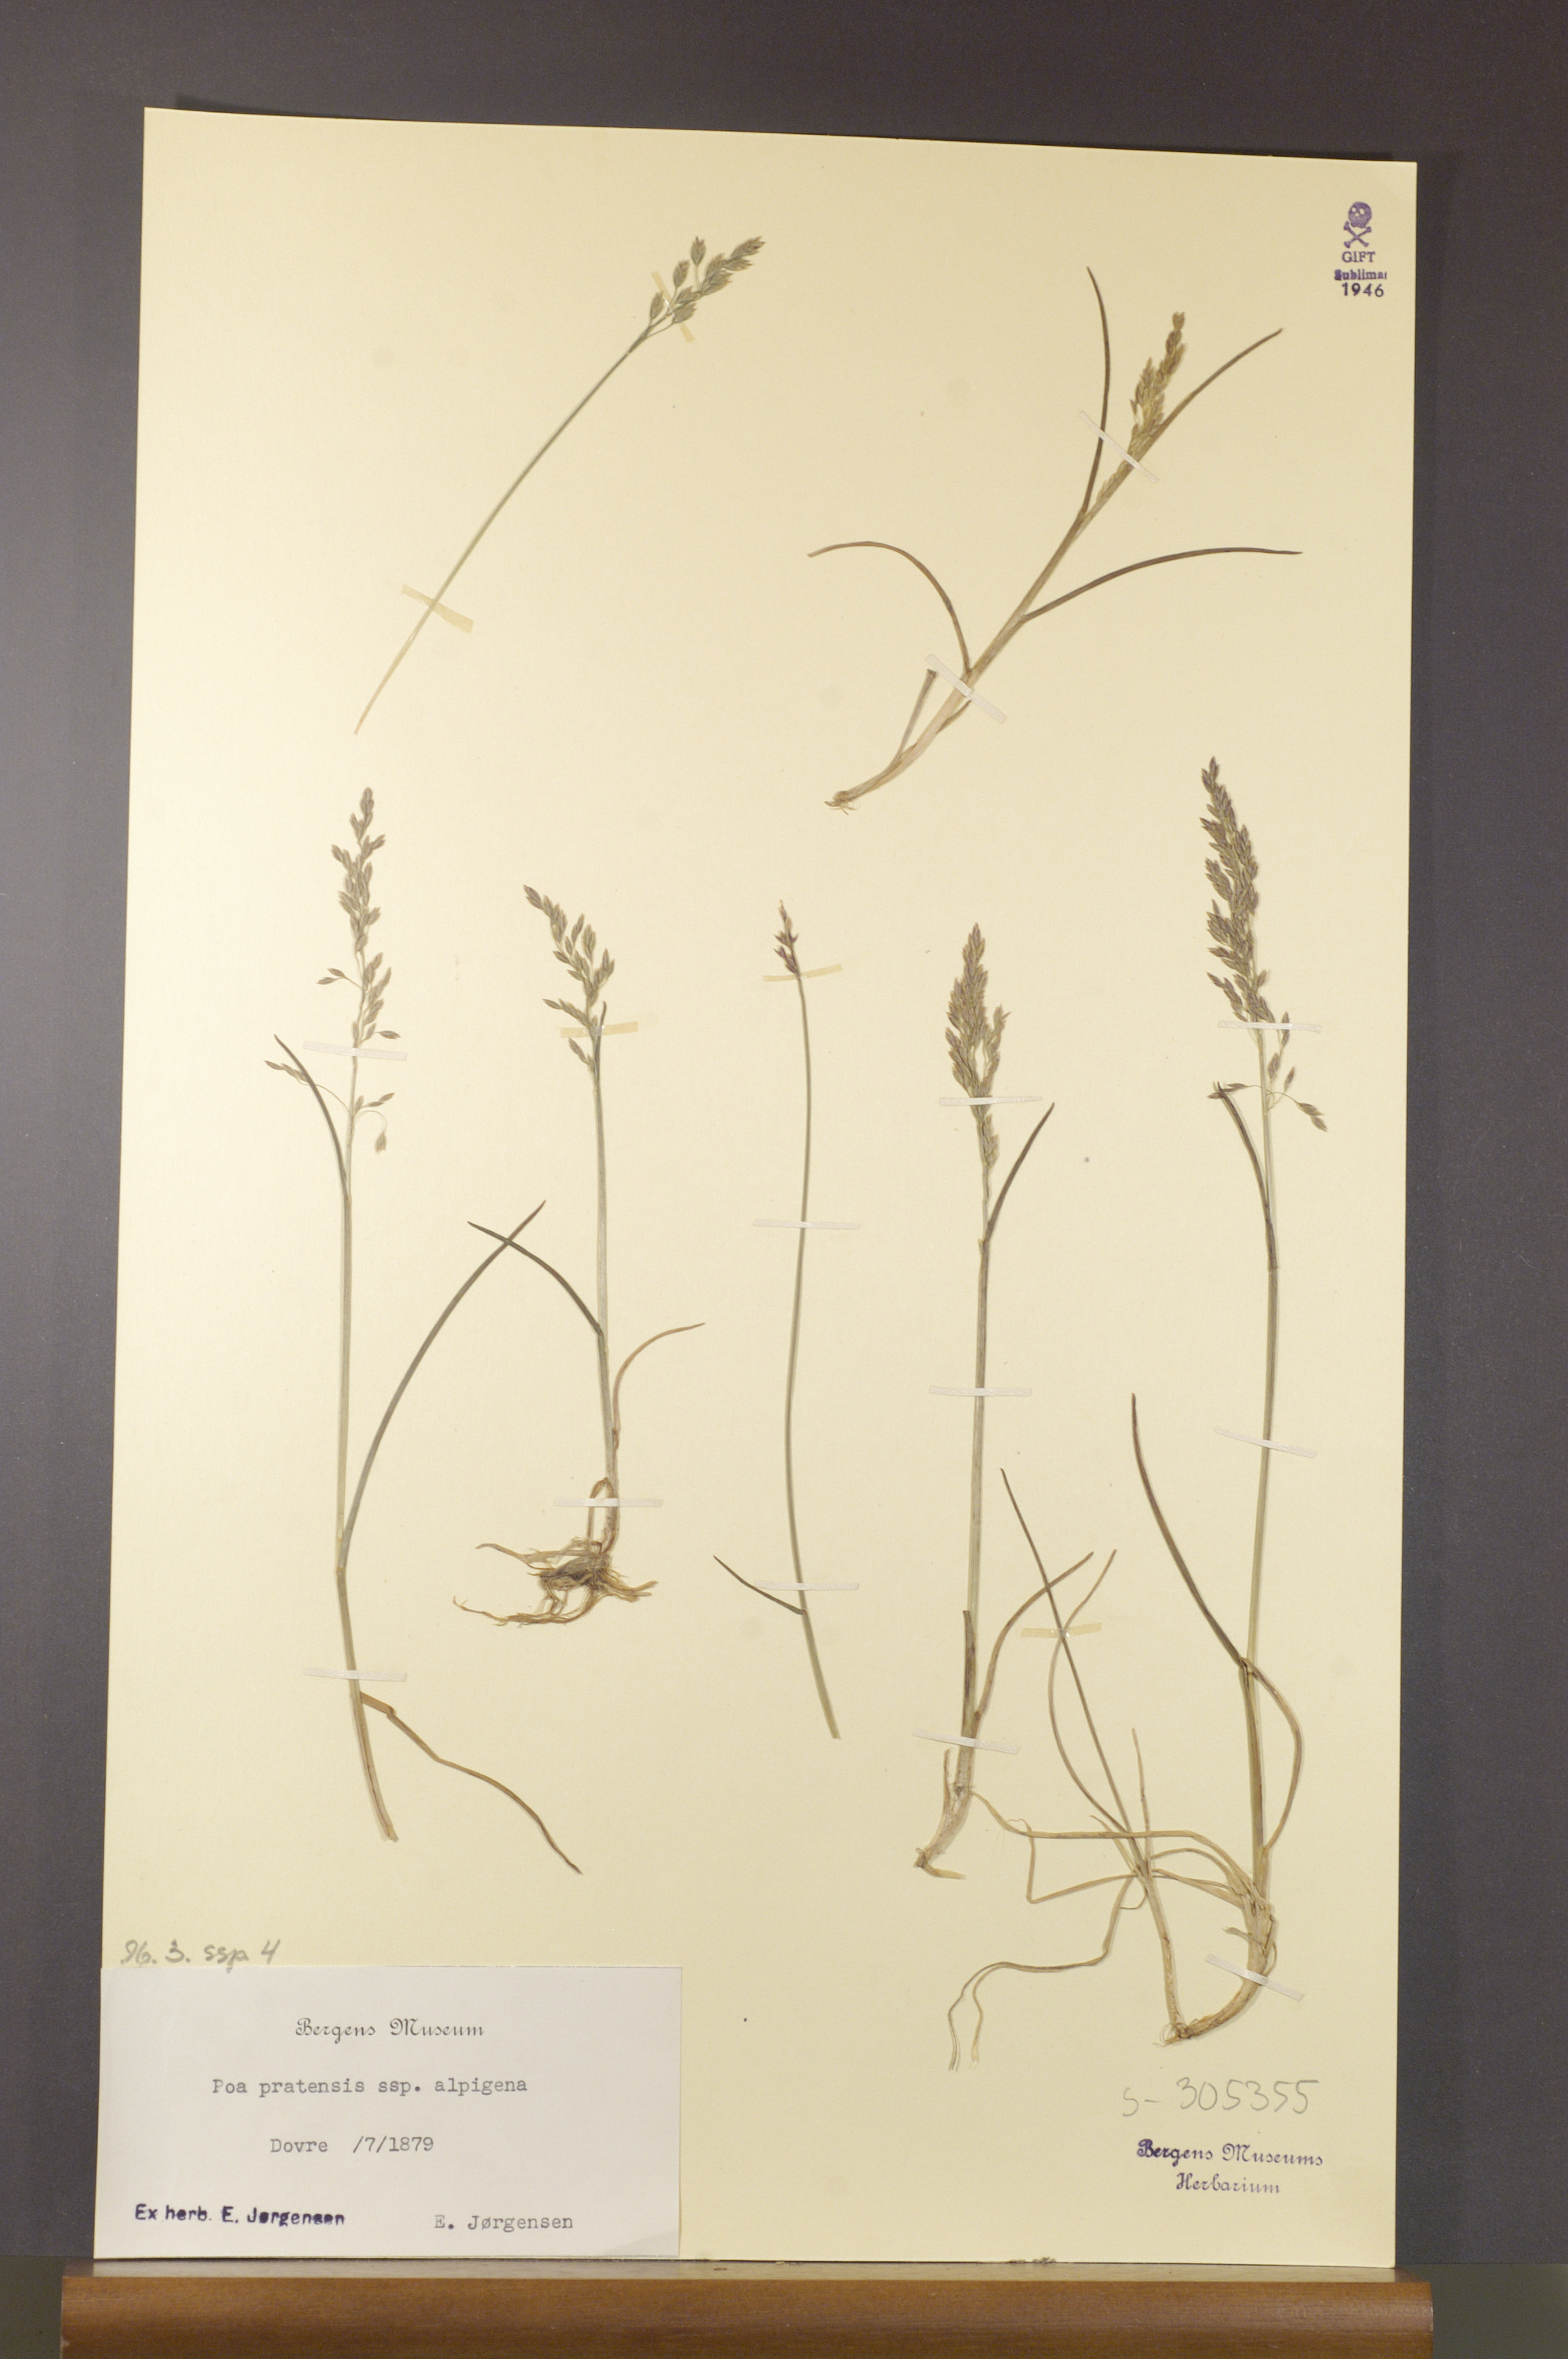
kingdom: Plantae
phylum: Tracheophyta
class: Liliopsida
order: Poales
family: Poaceae
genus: Poa
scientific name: Poa alpigena
